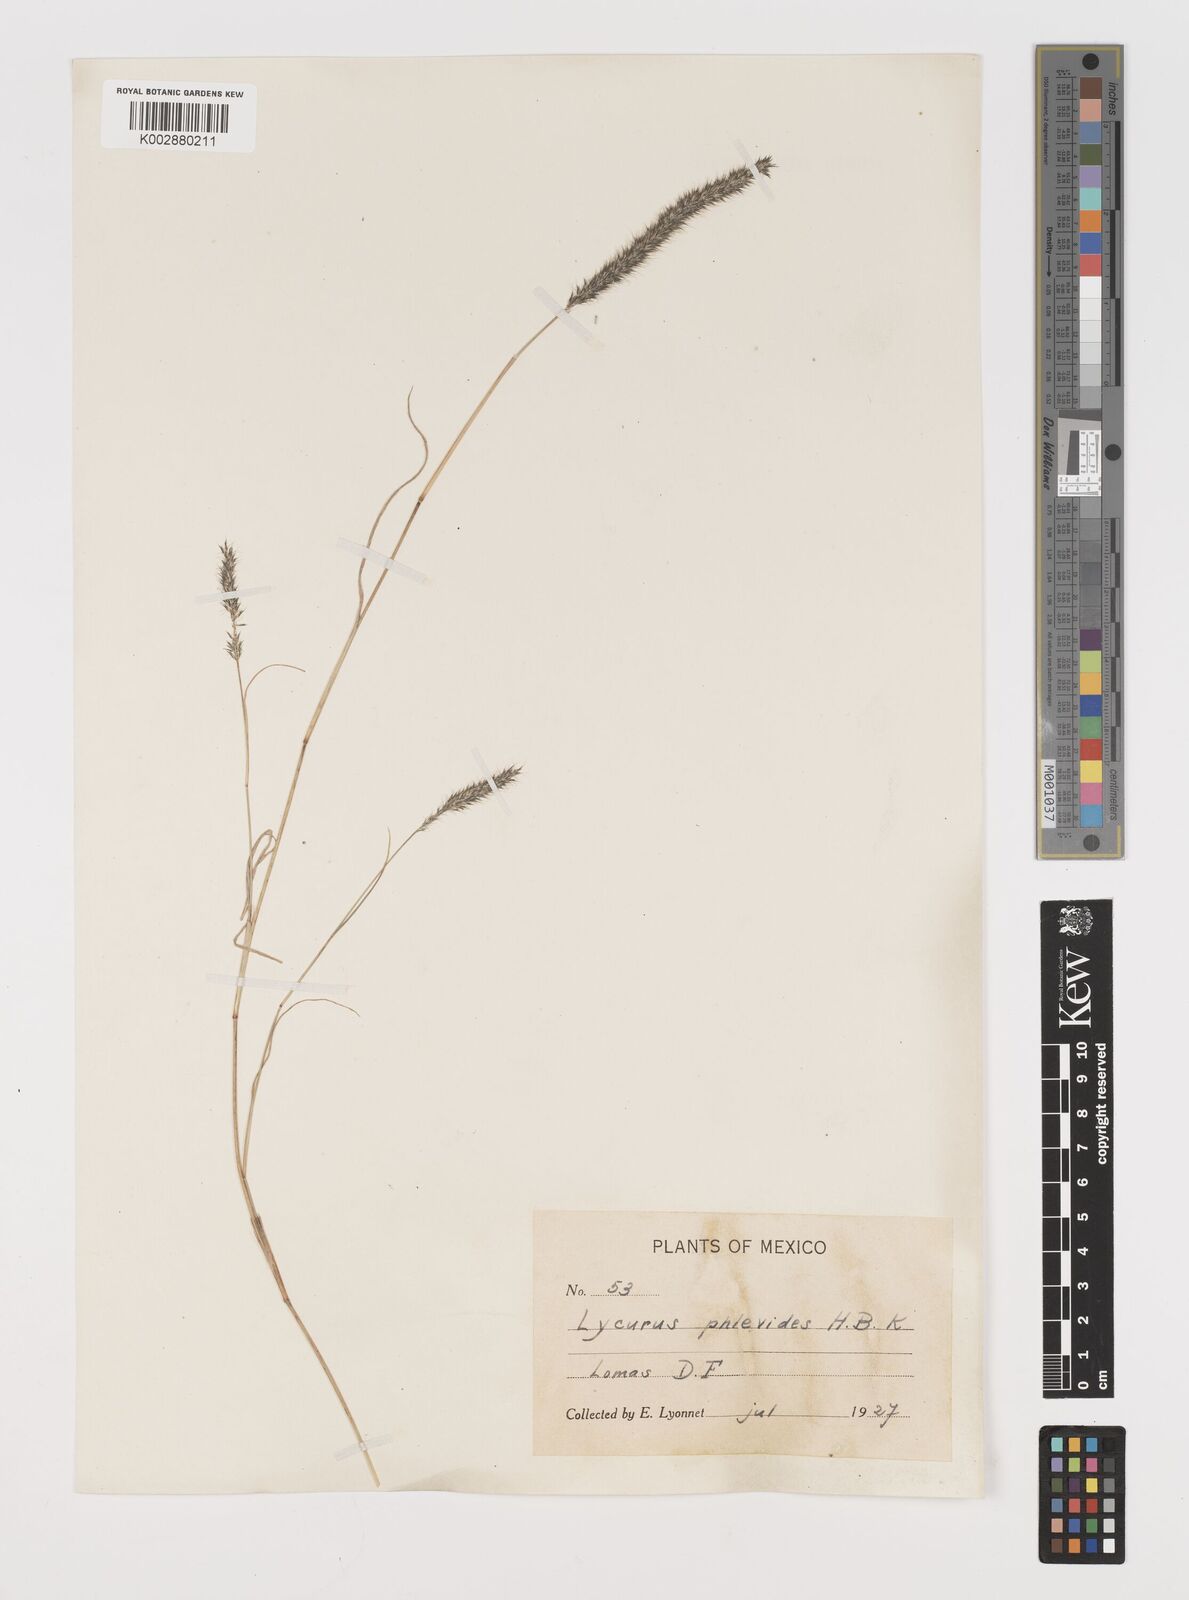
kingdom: Plantae
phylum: Tracheophyta
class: Liliopsida
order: Poales
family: Poaceae
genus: Muhlenbergia
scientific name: Muhlenbergia phleoides
